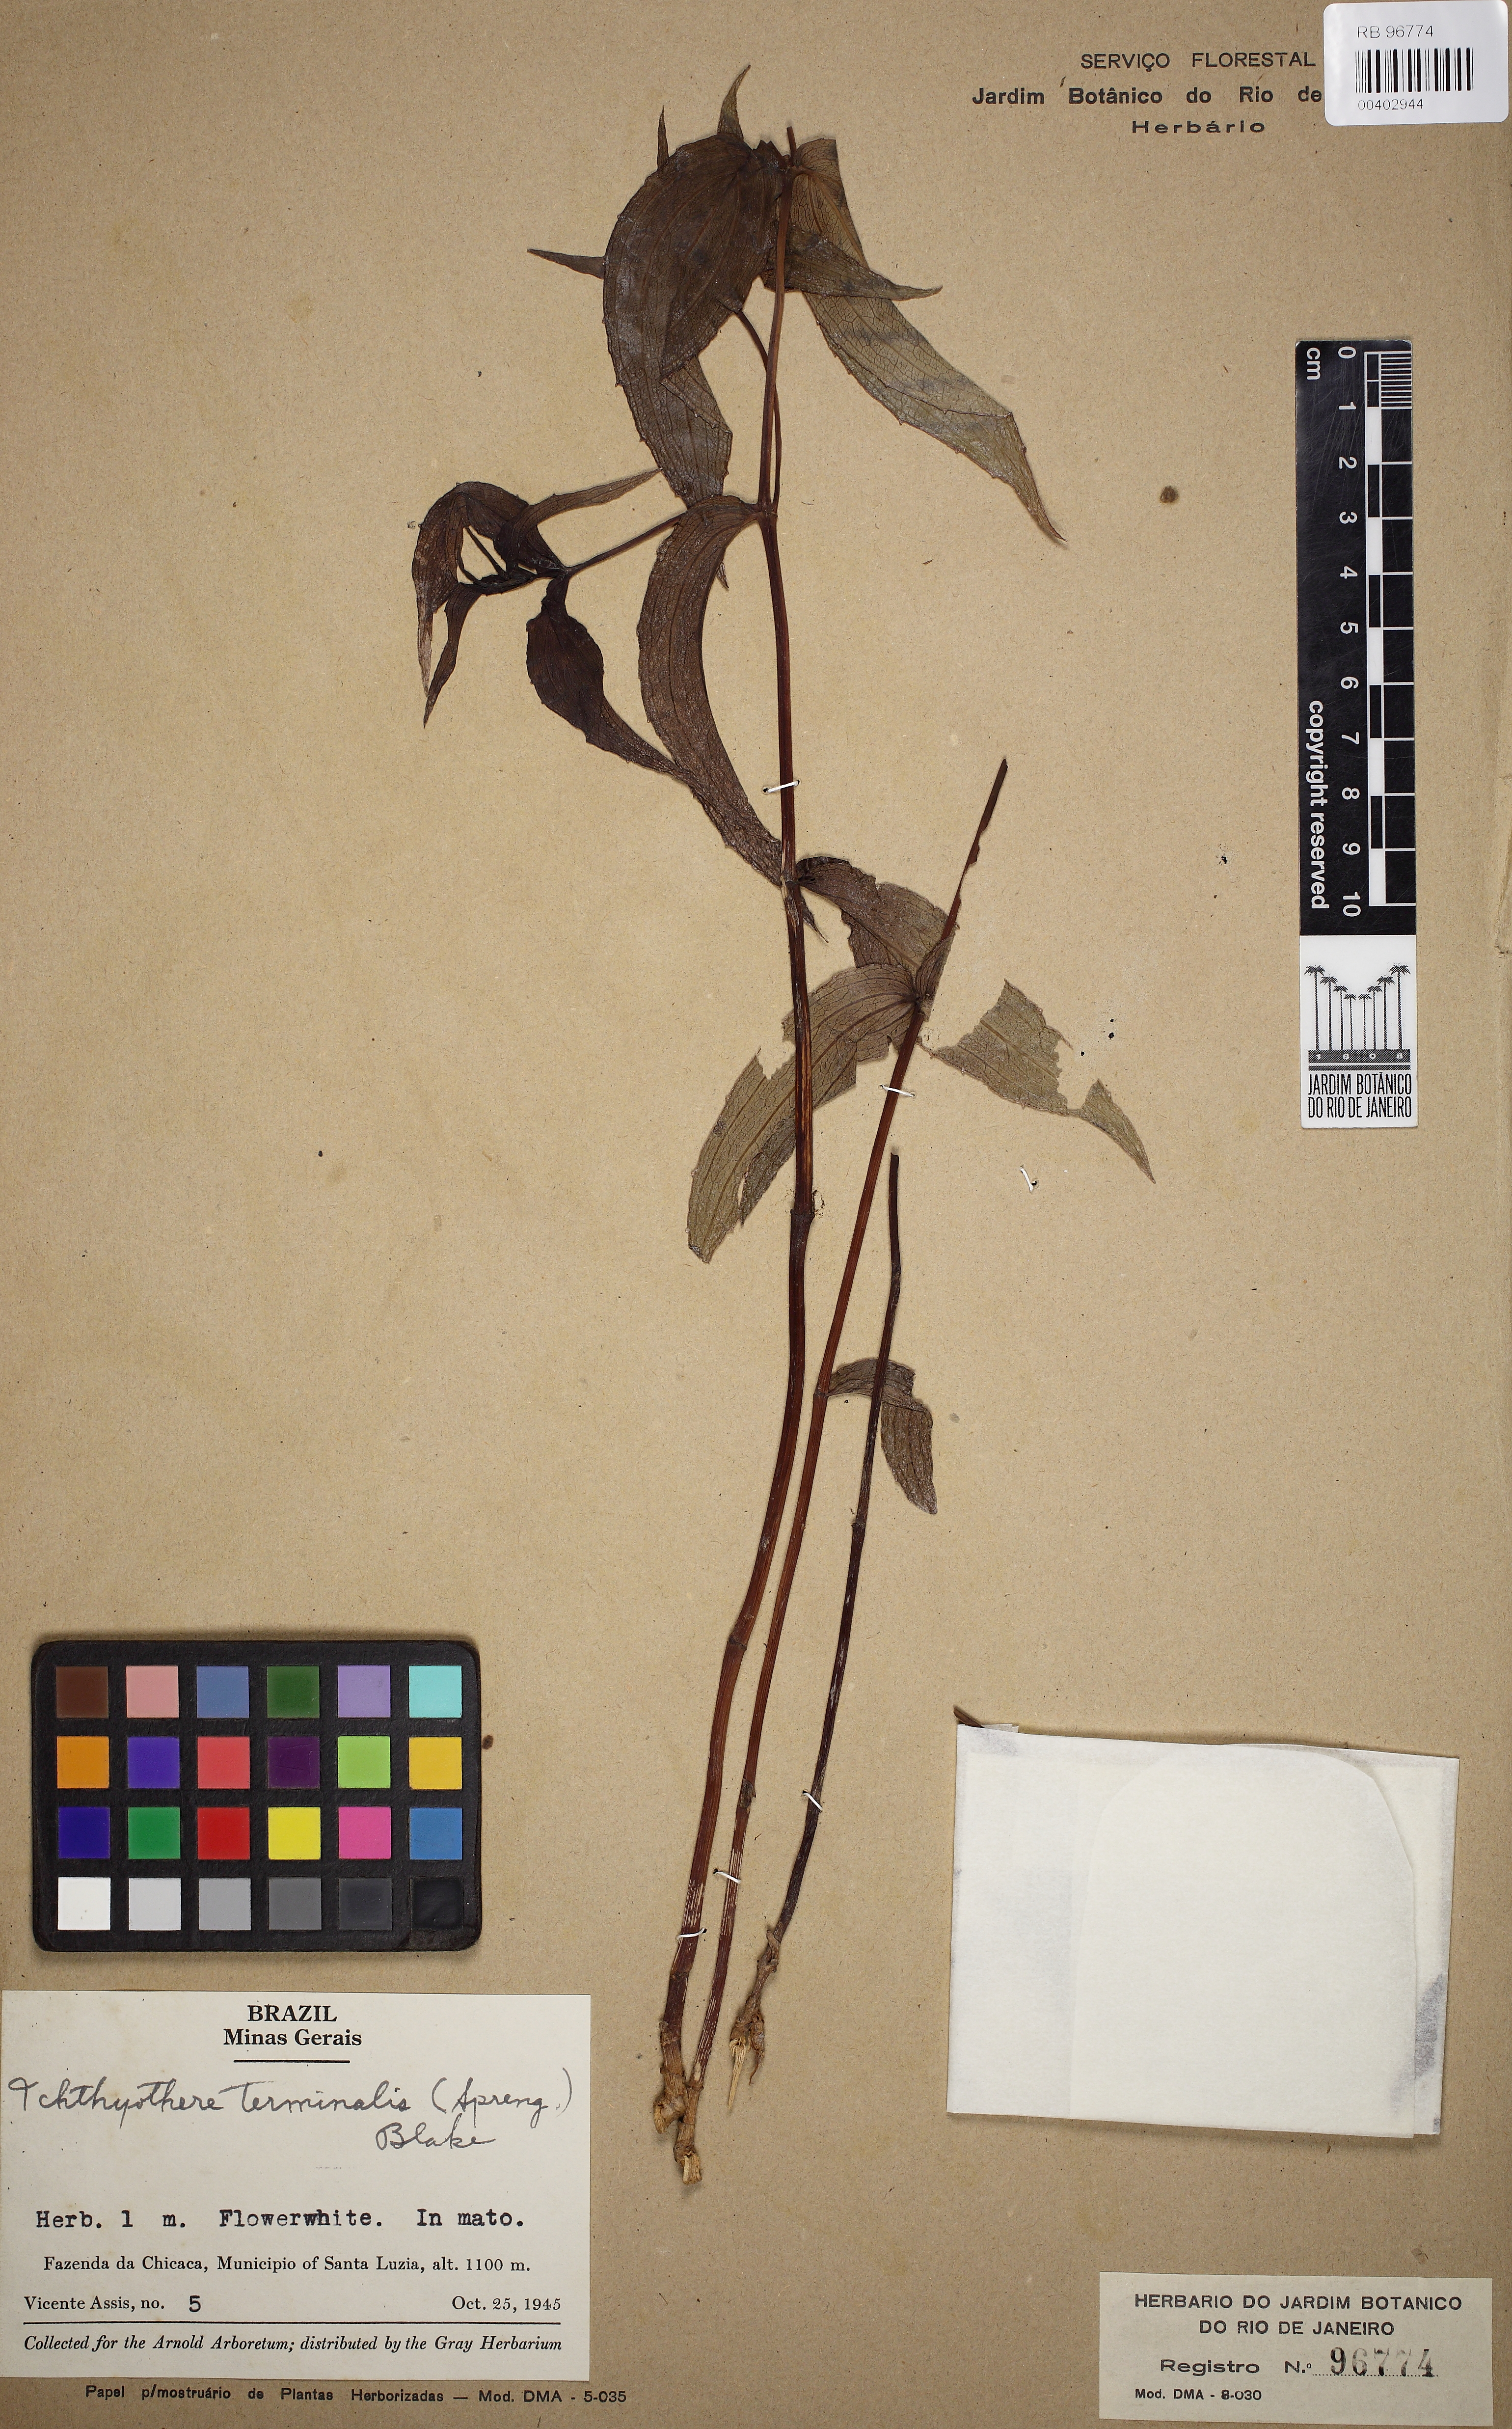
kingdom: Plantae
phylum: Tracheophyta
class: Magnoliopsida
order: Asterales
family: Asteraceae
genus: Ichthyothere
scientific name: Ichthyothere terminalis
